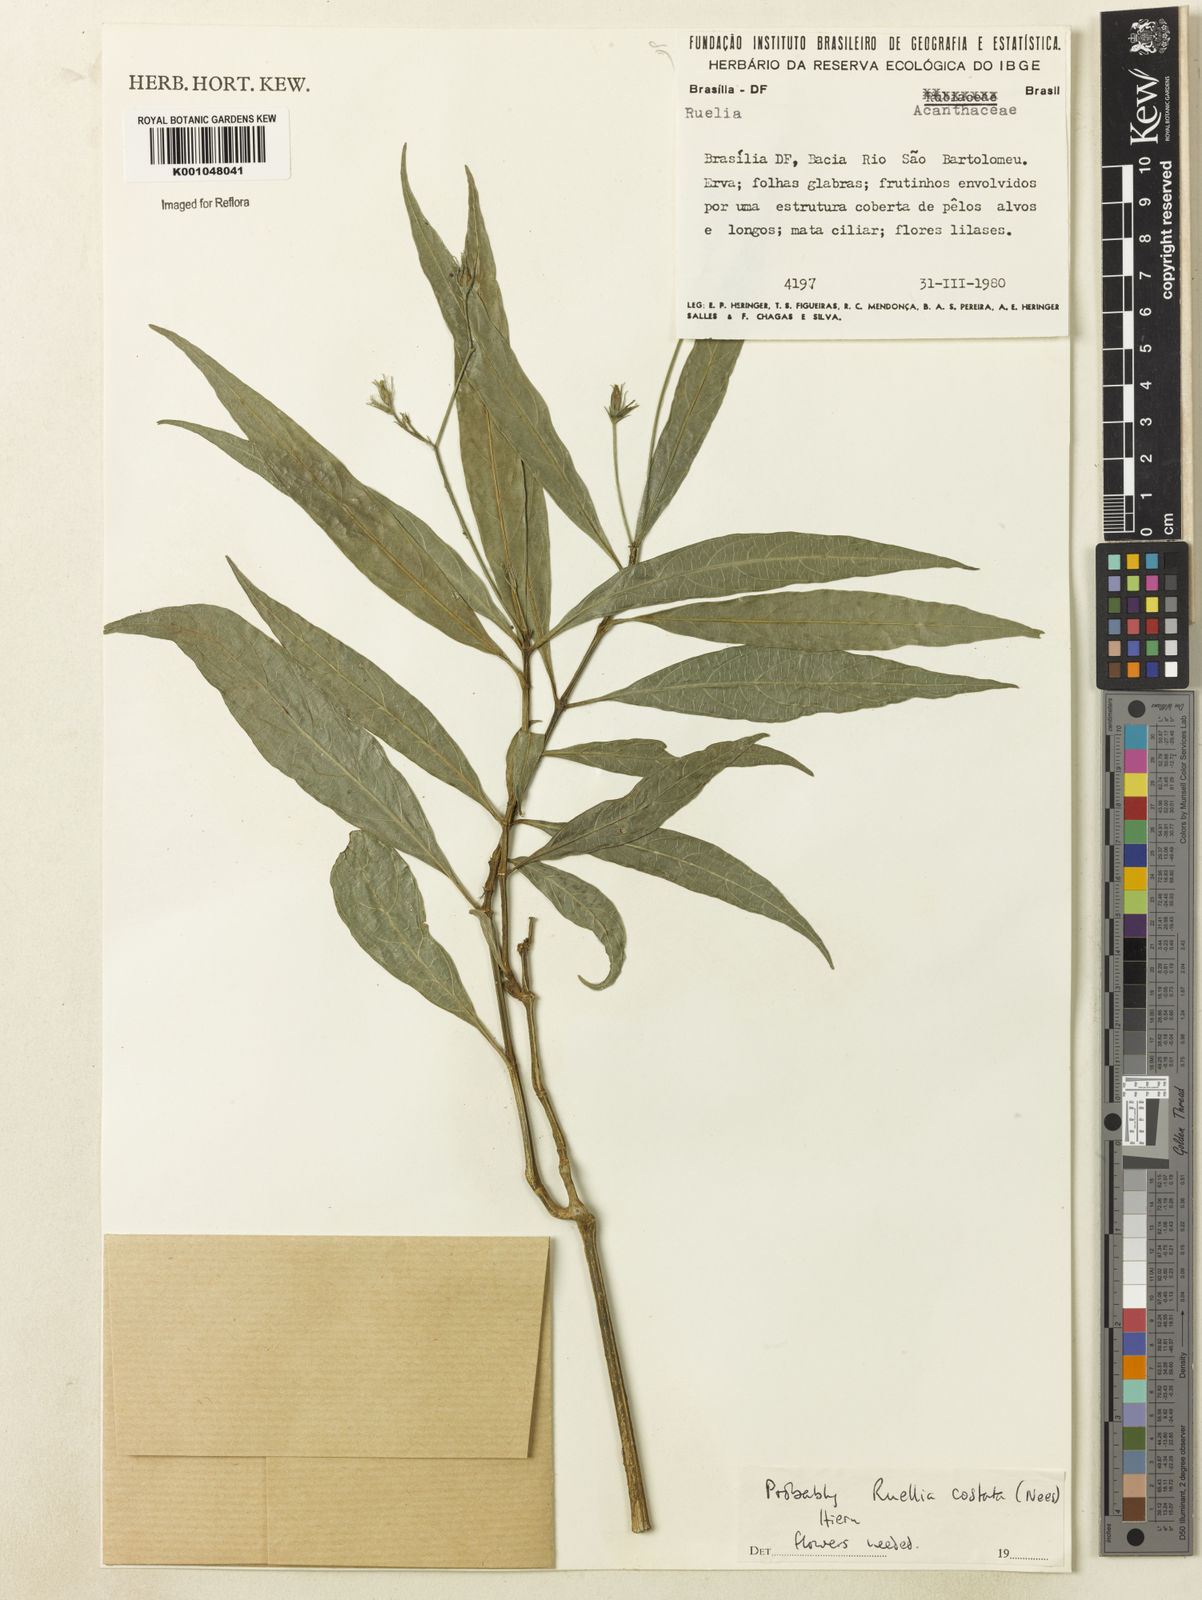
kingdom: Plantae
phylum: Tracheophyta
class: Magnoliopsida
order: Lamiales
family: Acanthaceae
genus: Ruellia
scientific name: Ruellia costata
